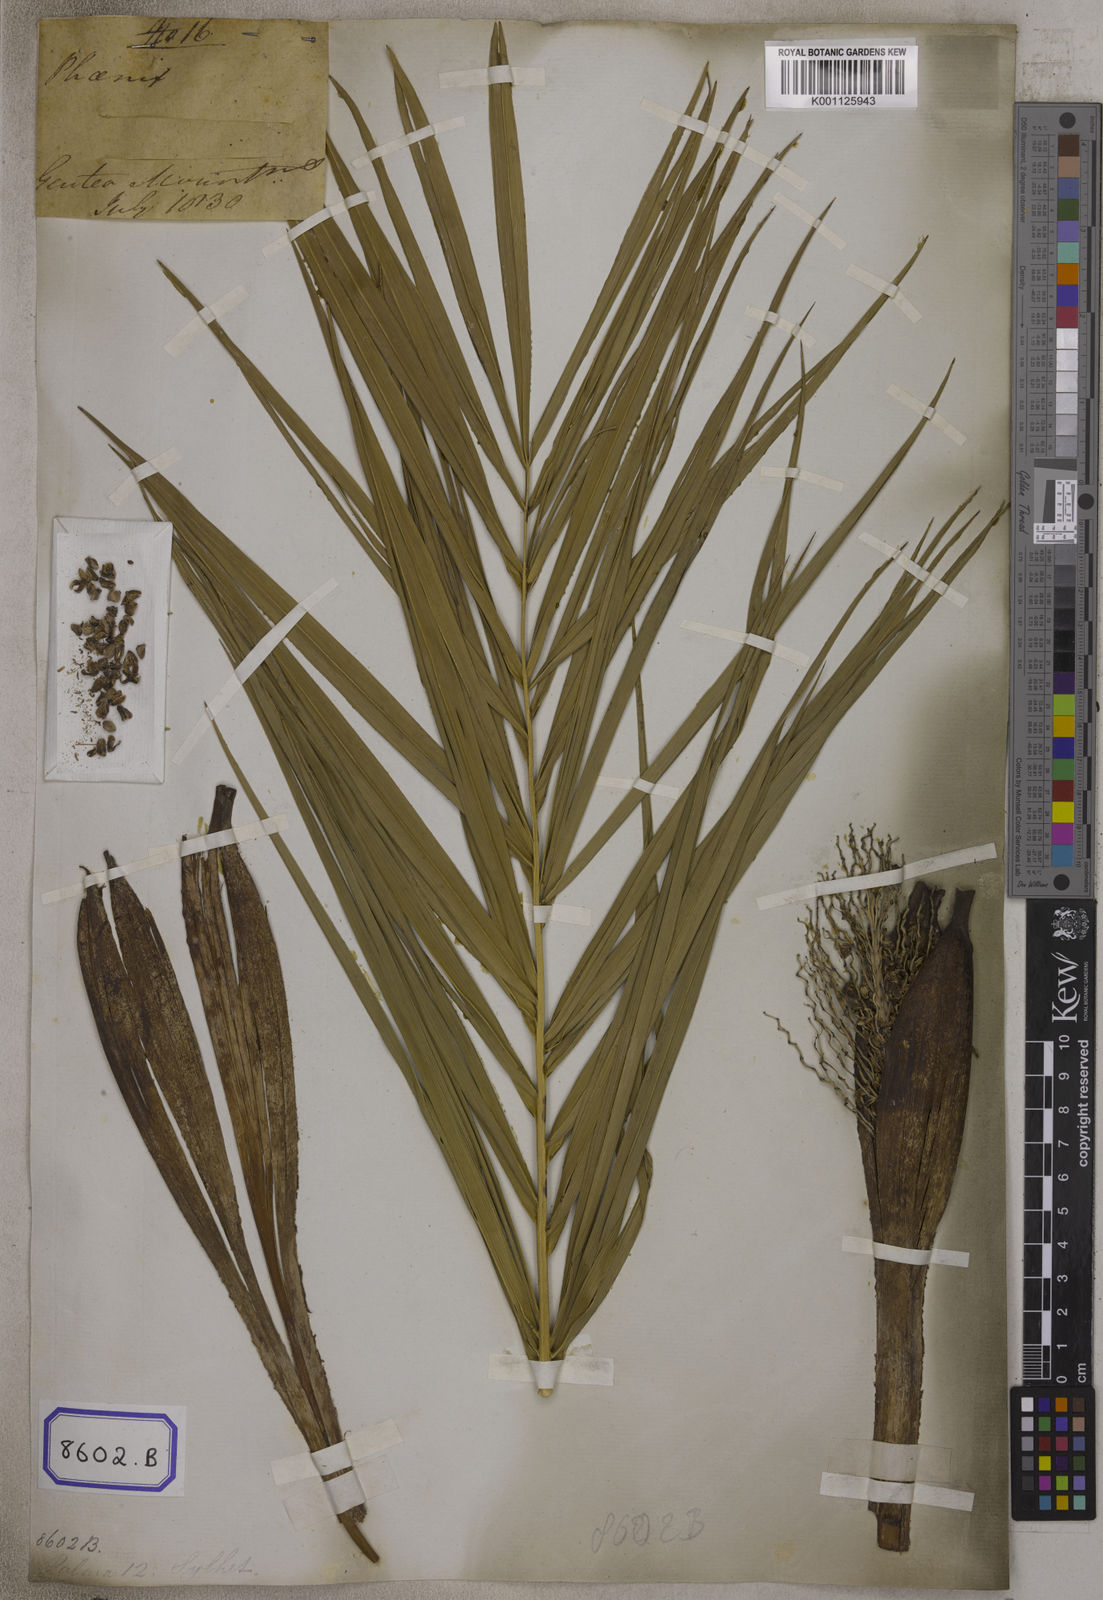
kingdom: Plantae
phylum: Tracheophyta
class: Liliopsida
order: Arecales
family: Arecaceae
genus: Phoenix
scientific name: Phoenix sylvestris
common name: Wild date palm
